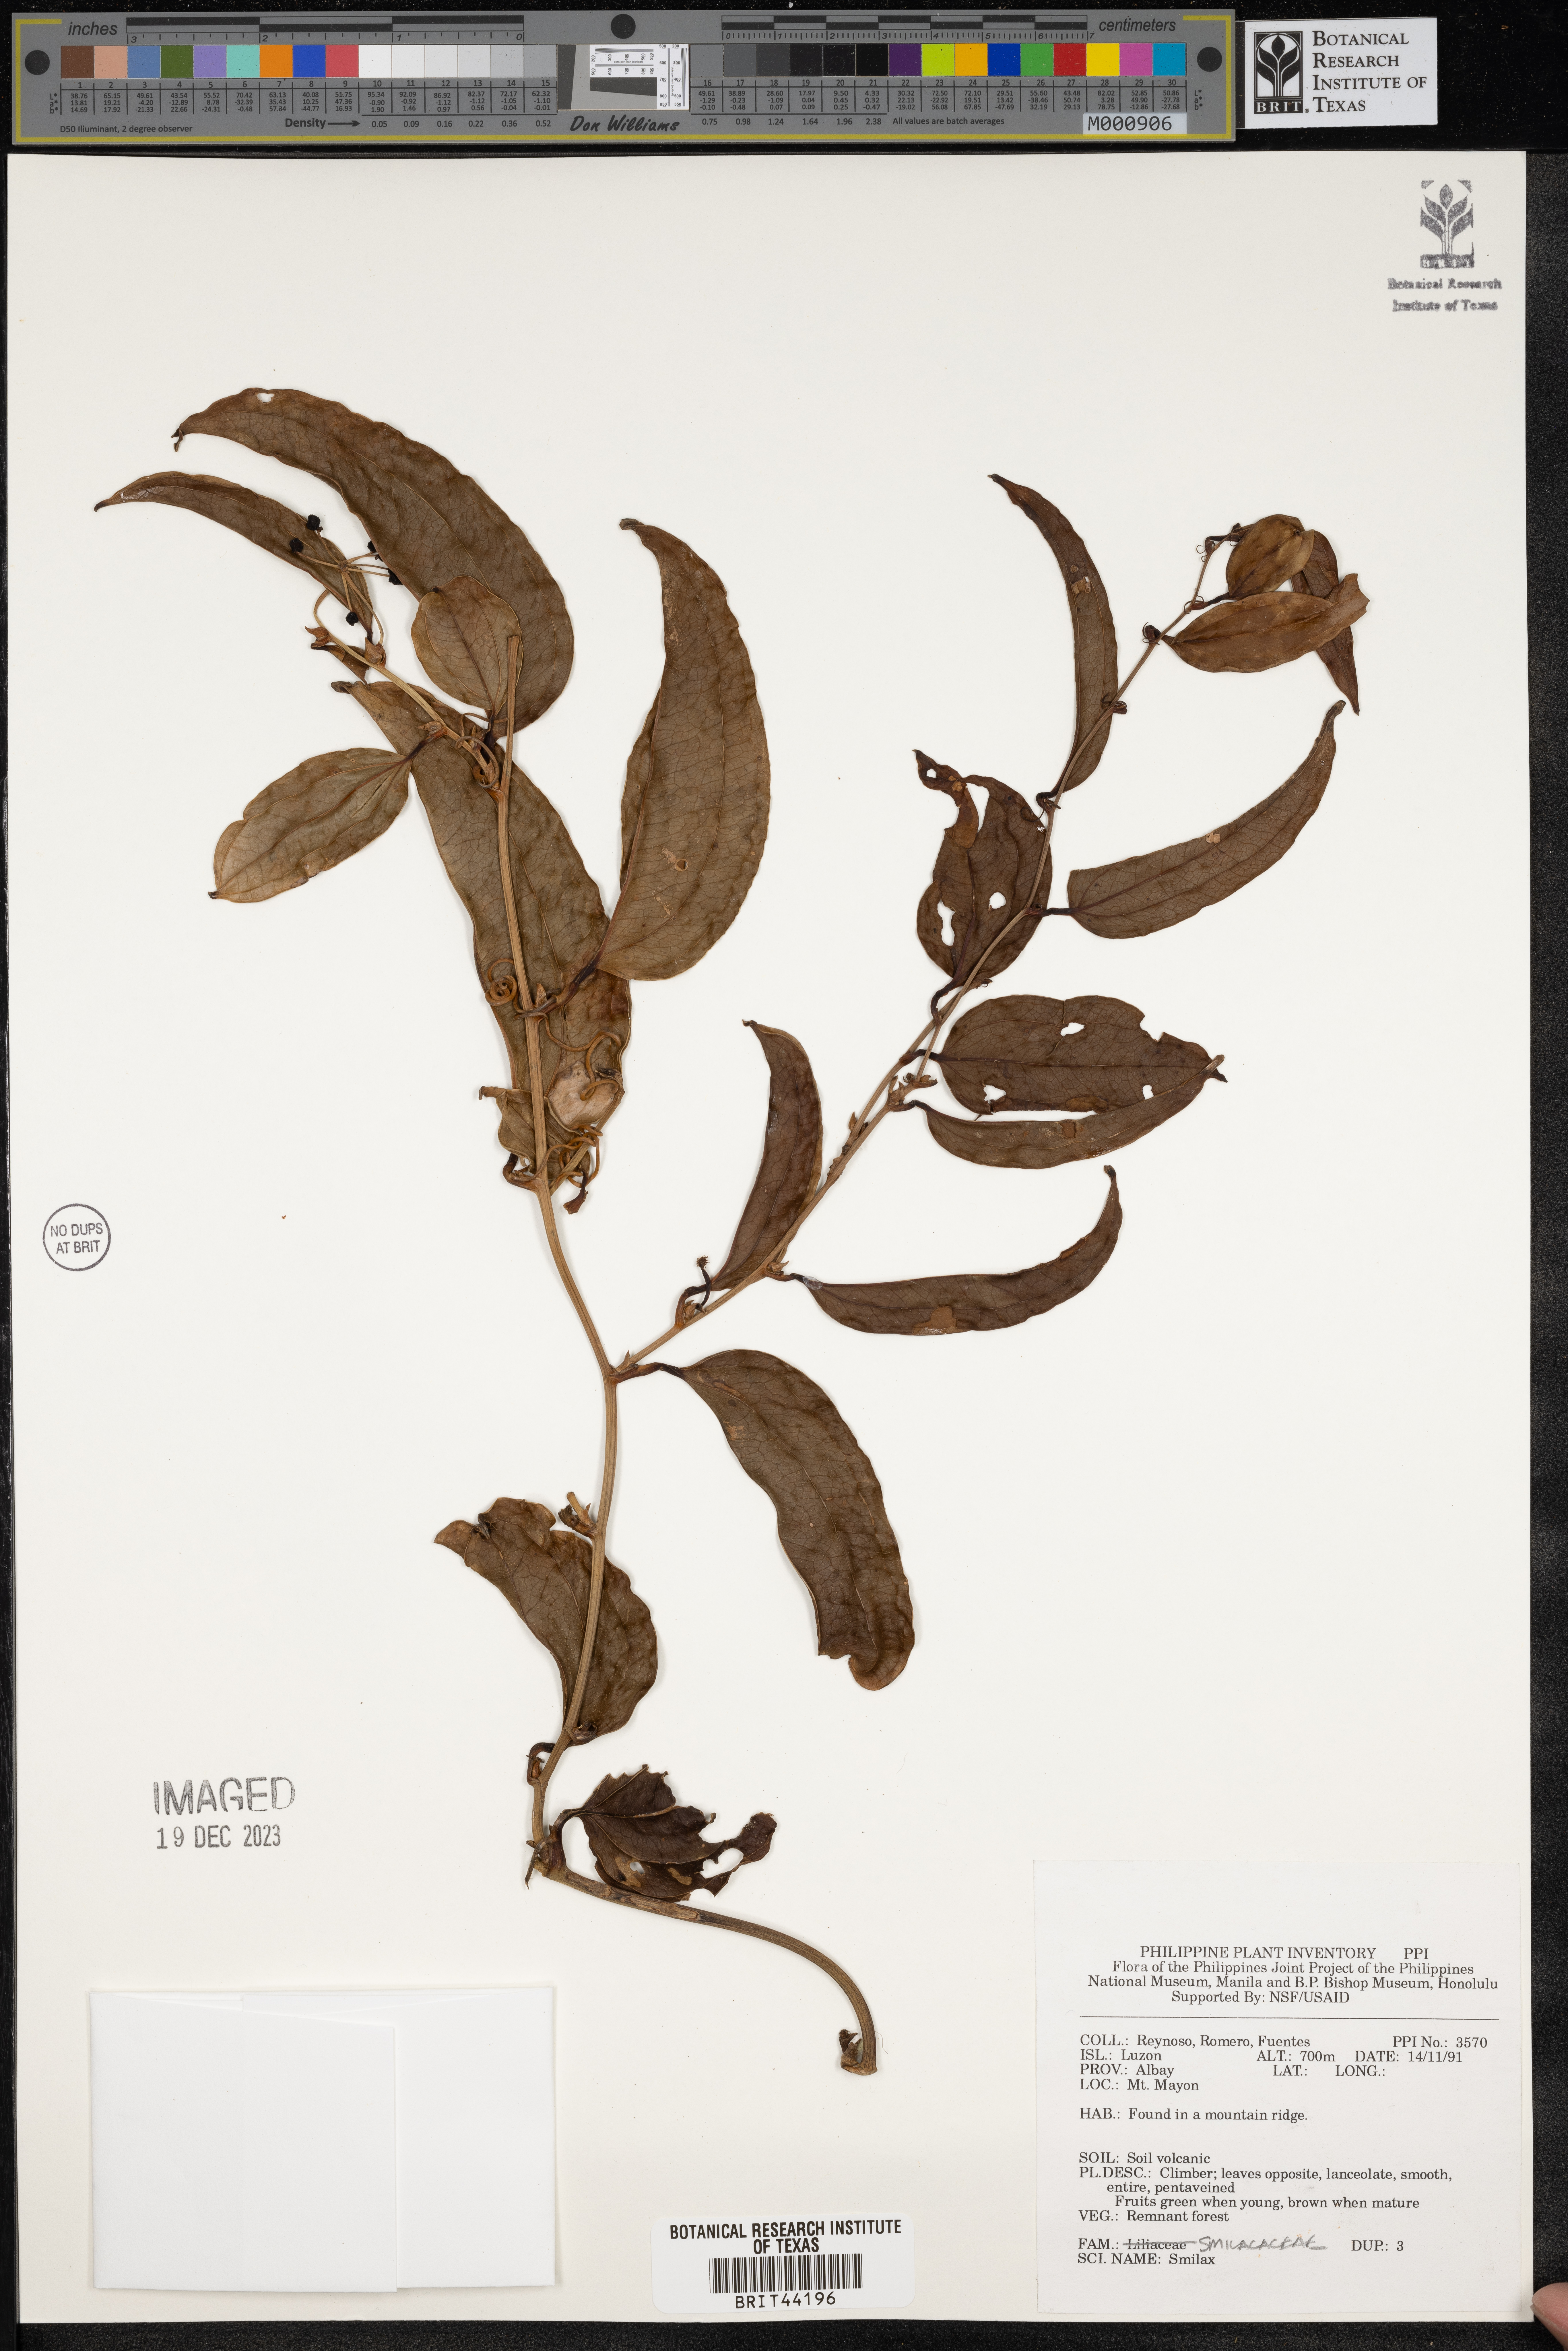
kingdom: Plantae
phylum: Tracheophyta
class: Liliopsida
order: Liliales
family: Smilacaceae
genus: Smilax
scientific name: Smilax
